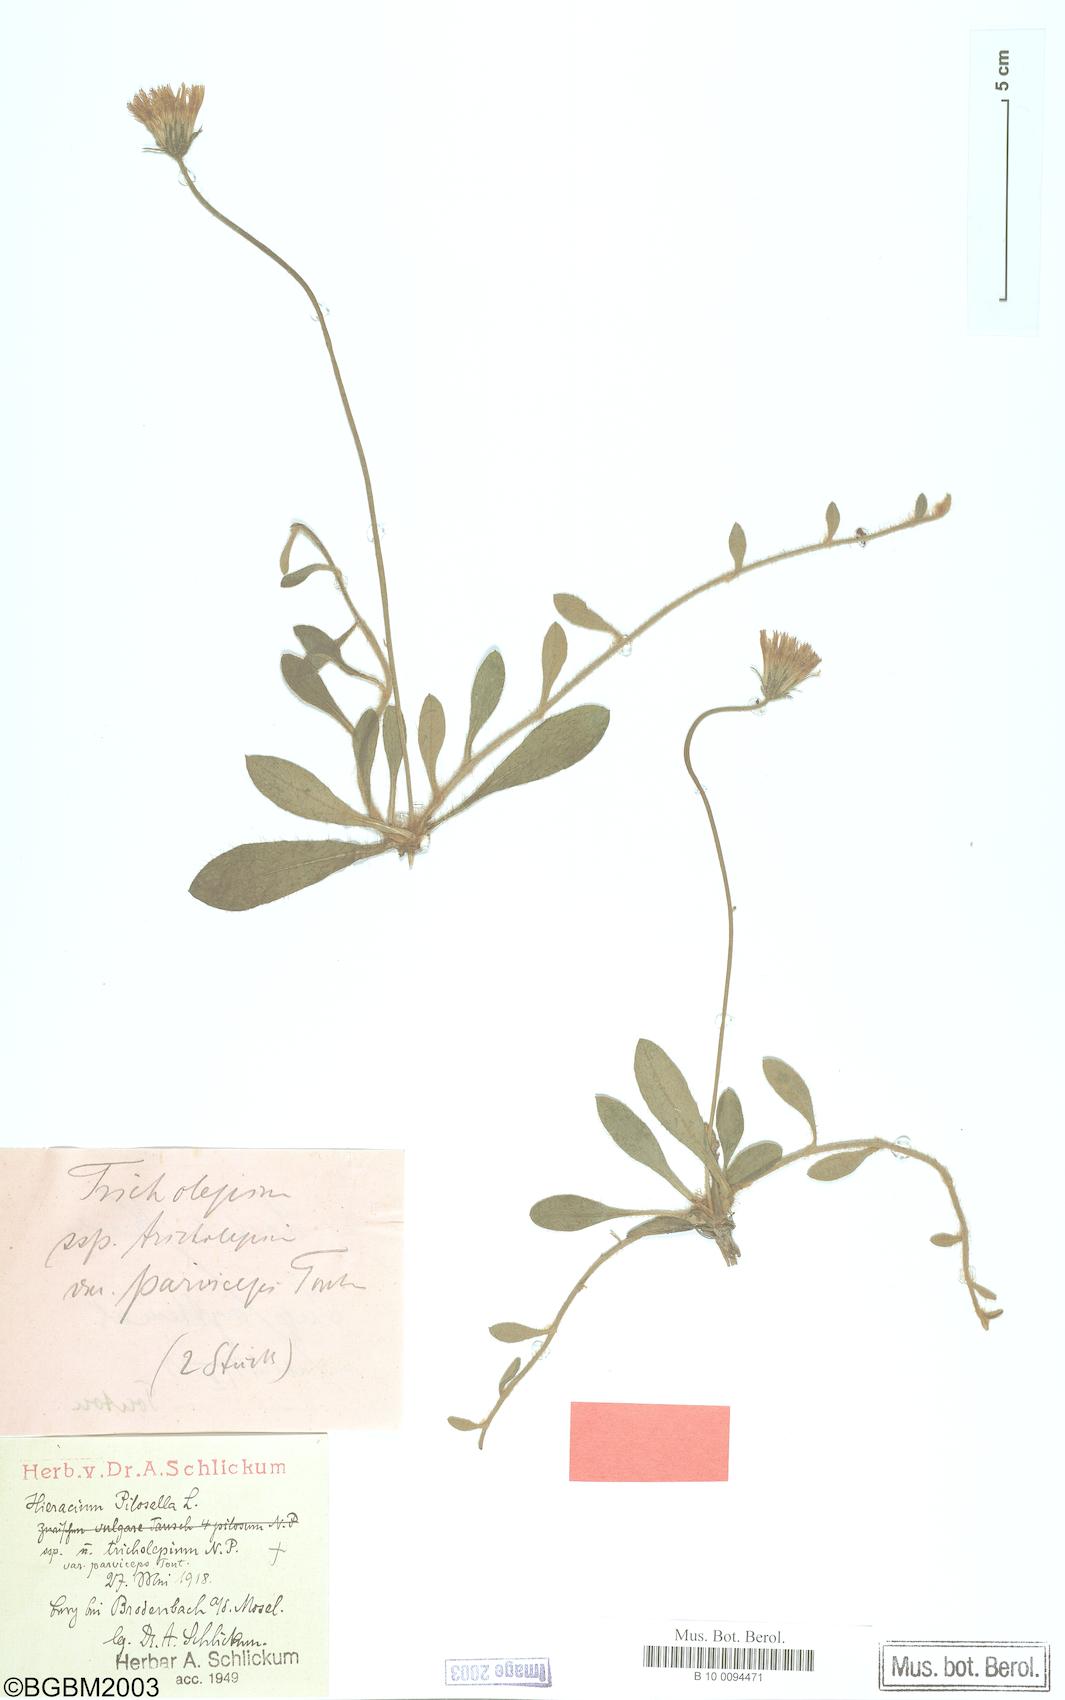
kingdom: Plantae
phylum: Tracheophyta
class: Magnoliopsida
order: Asterales
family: Asteraceae
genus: Pilosella
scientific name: Pilosella officinarum
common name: Mouse-ear hawkweed
